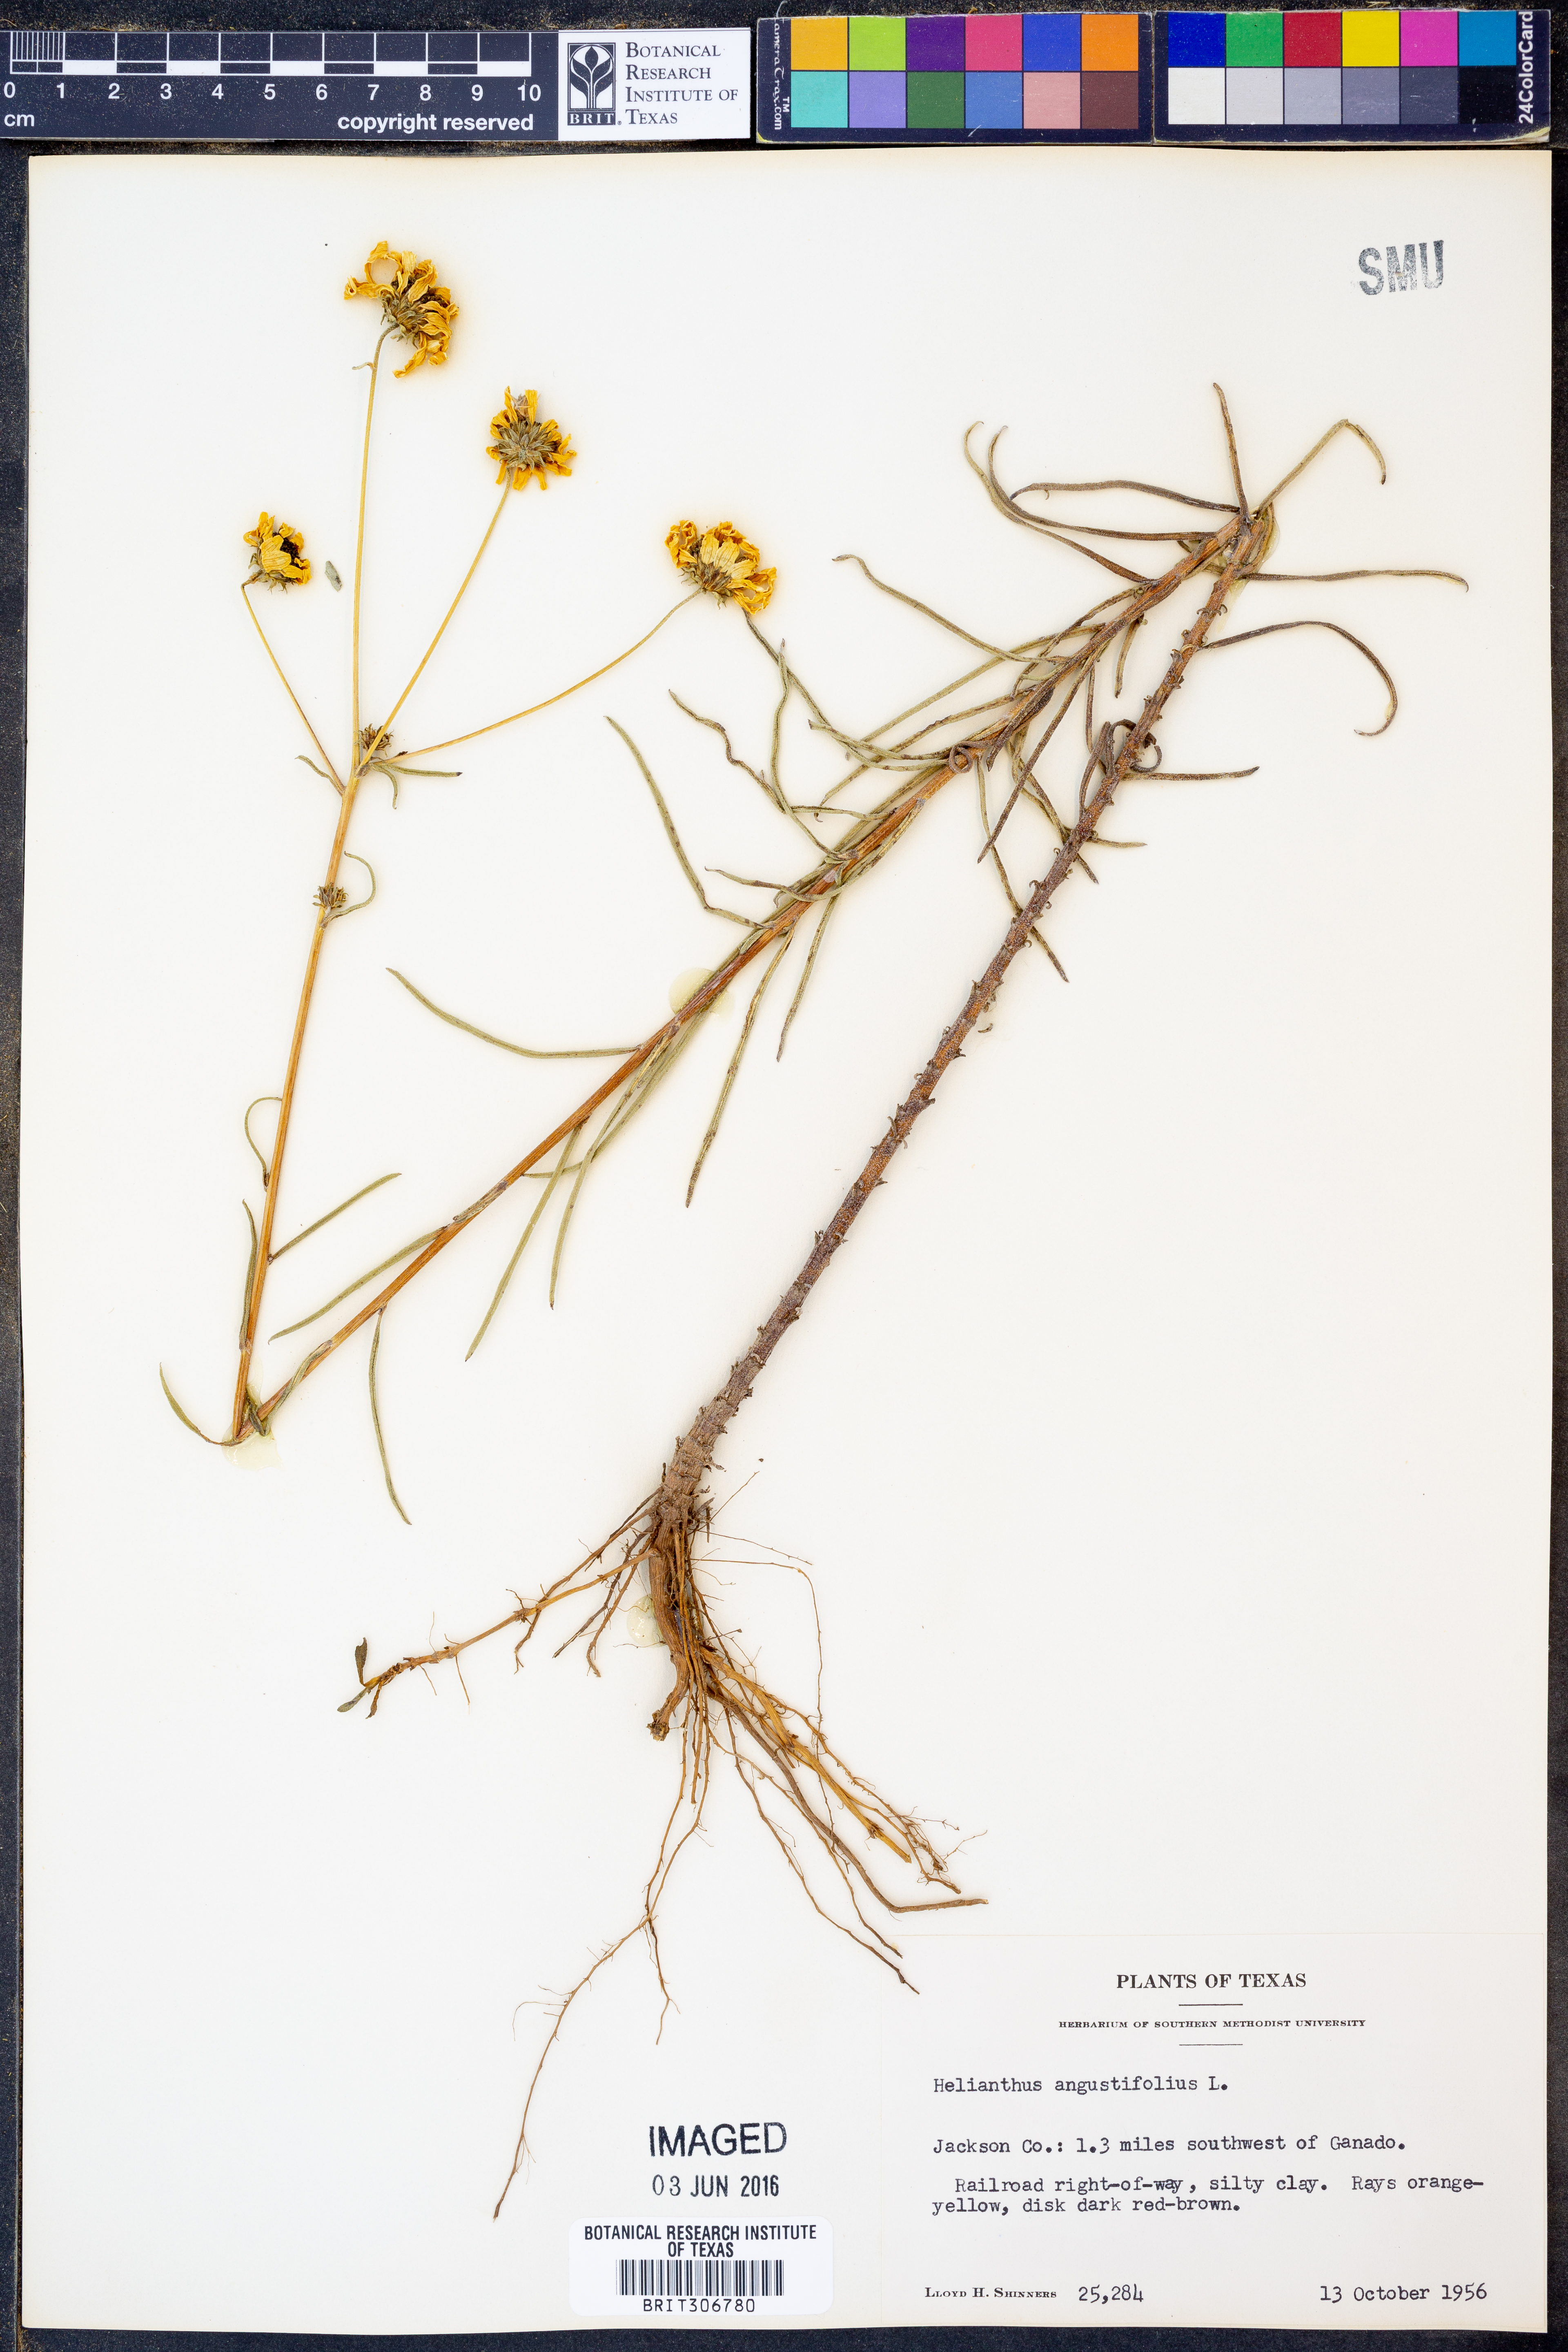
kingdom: Plantae
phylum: Tracheophyta
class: Magnoliopsida
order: Asterales
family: Asteraceae
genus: Helianthus
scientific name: Helianthus angustifolius
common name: Swamp sunflower
